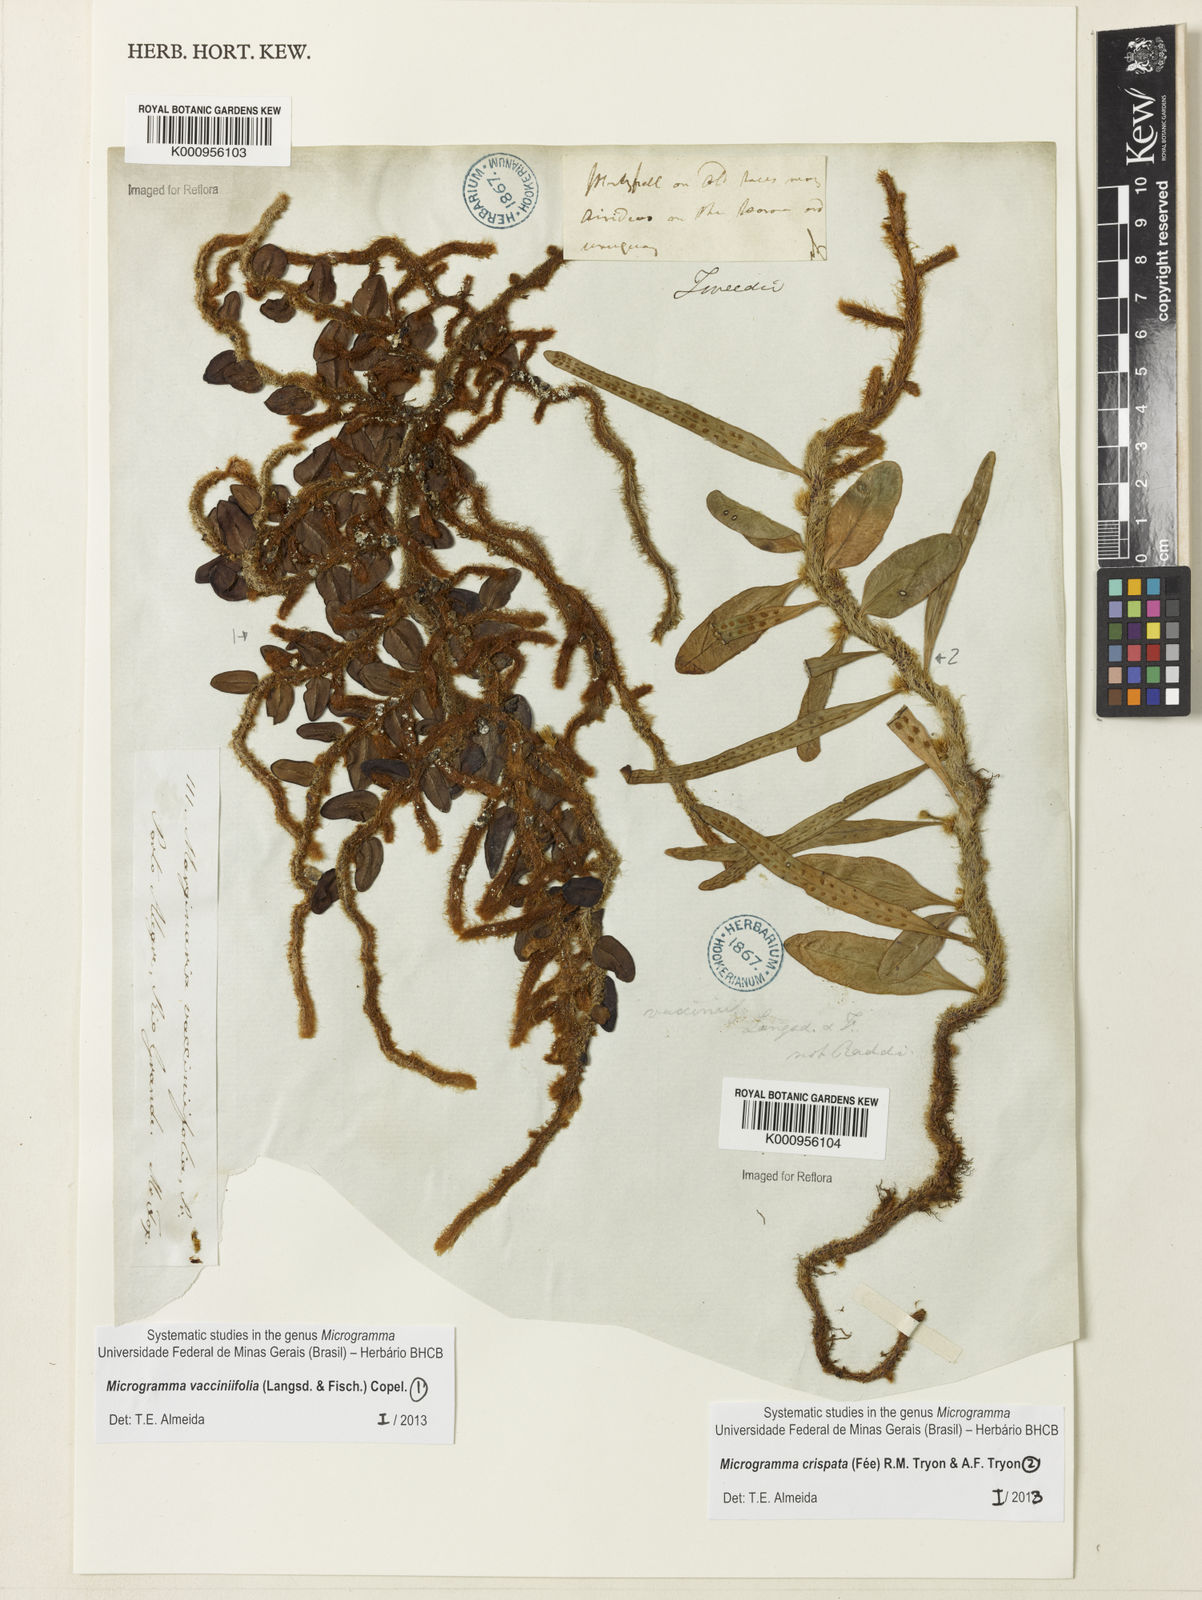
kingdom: Plantae
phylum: Tracheophyta
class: Polypodiopsida
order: Polypodiales
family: Polypodiaceae
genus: Phlebodium
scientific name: Phlebodium
